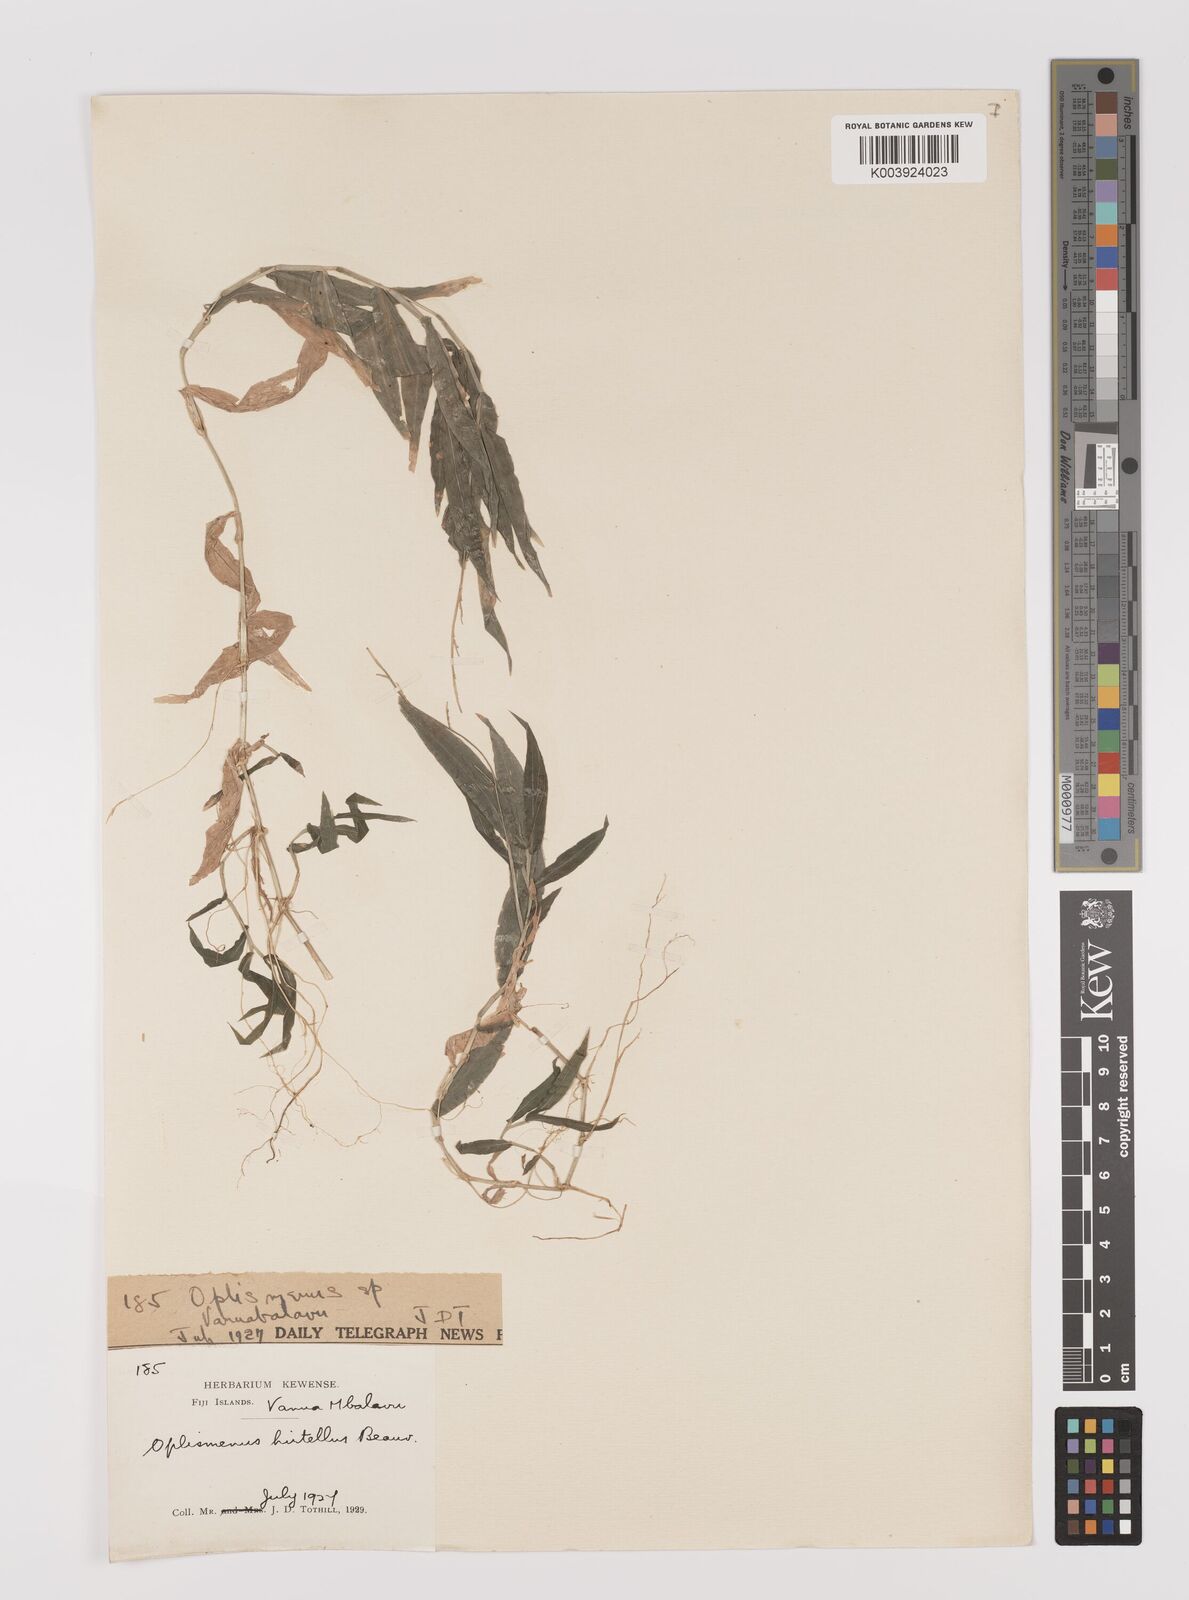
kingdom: Plantae
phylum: Tracheophyta
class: Liliopsida
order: Poales
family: Poaceae
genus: Oplismenus
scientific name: Oplismenus hirtellus
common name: Basketgrass
